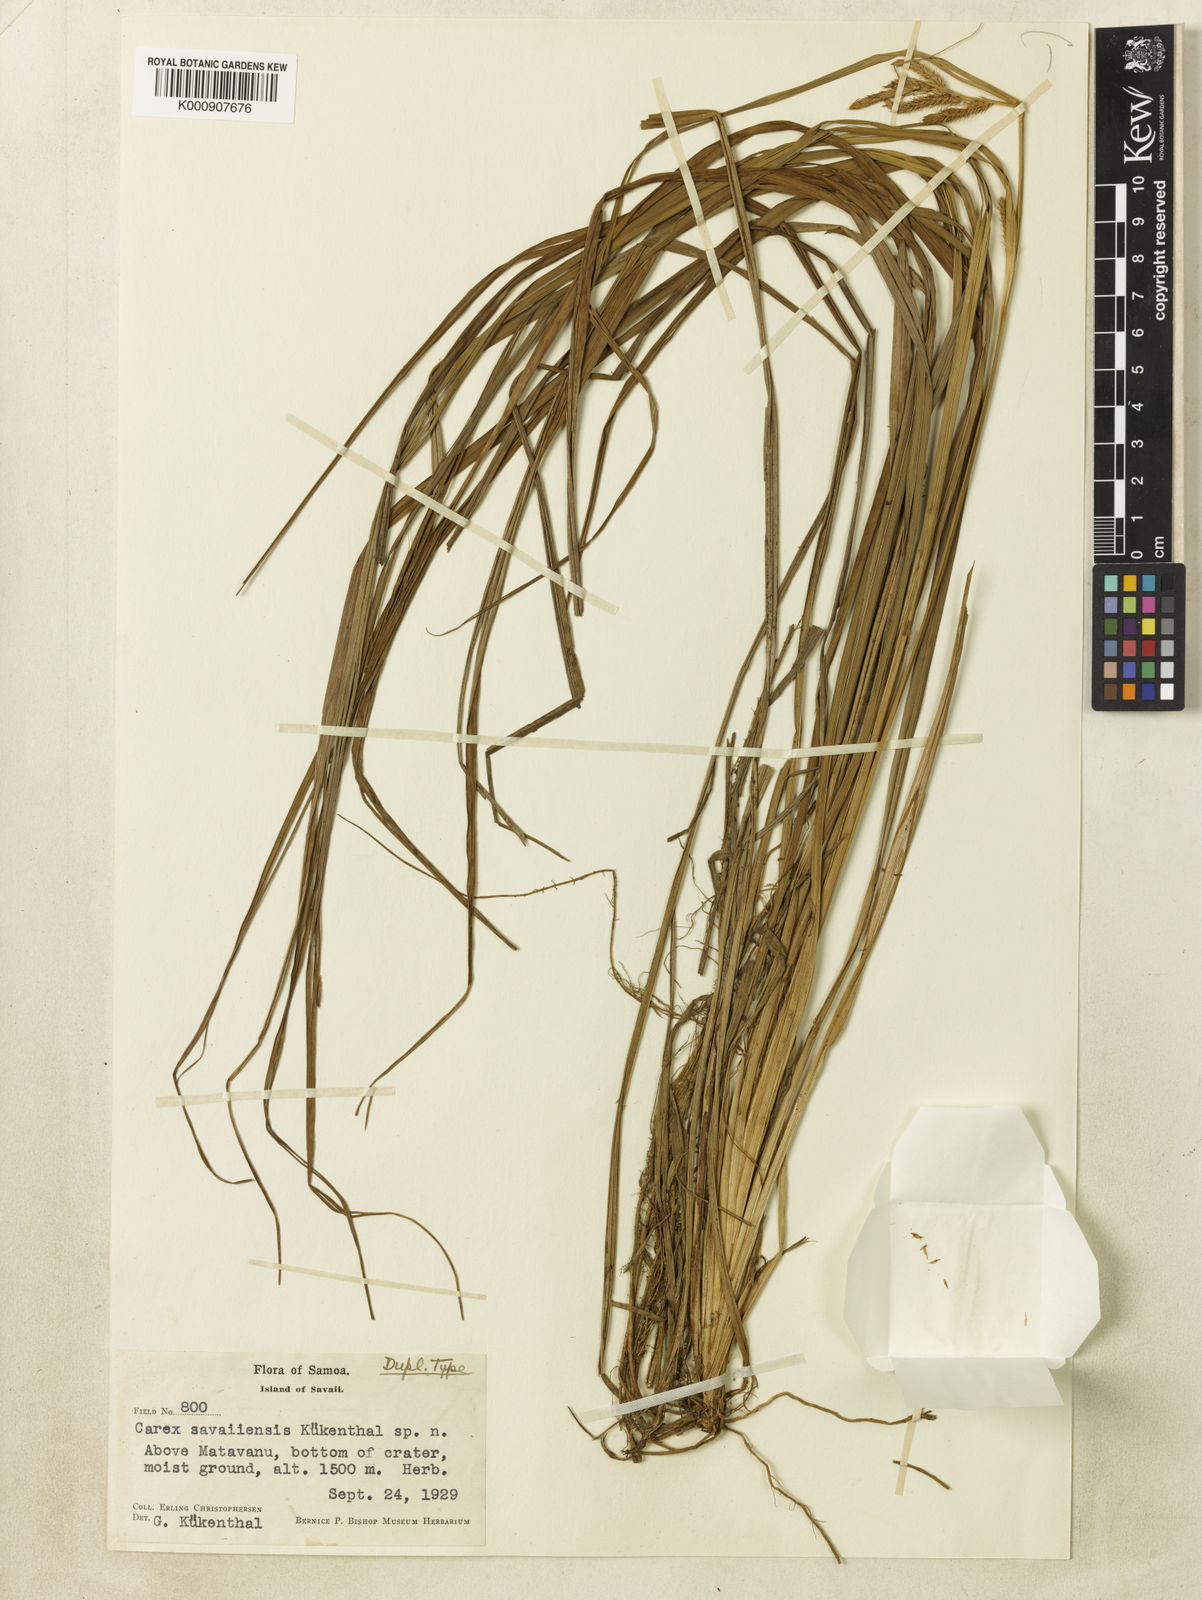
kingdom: Plantae
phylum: Tracheophyta
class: Liliopsida
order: Poales
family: Cyperaceae
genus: Carex
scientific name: Carex
